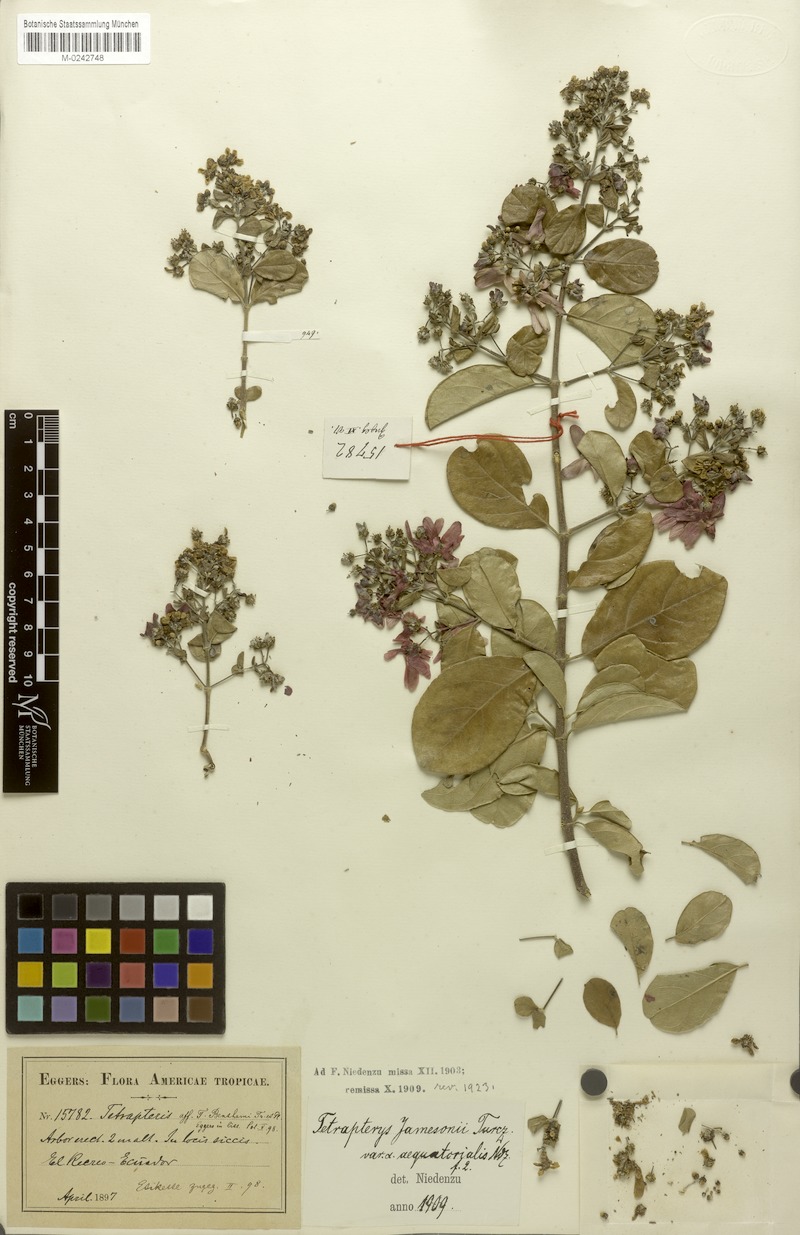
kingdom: Plantae
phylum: Tracheophyta
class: Magnoliopsida
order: Malpighiales
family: Malpighiaceae
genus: Tetrapterys
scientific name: Tetrapterys jamesonii
